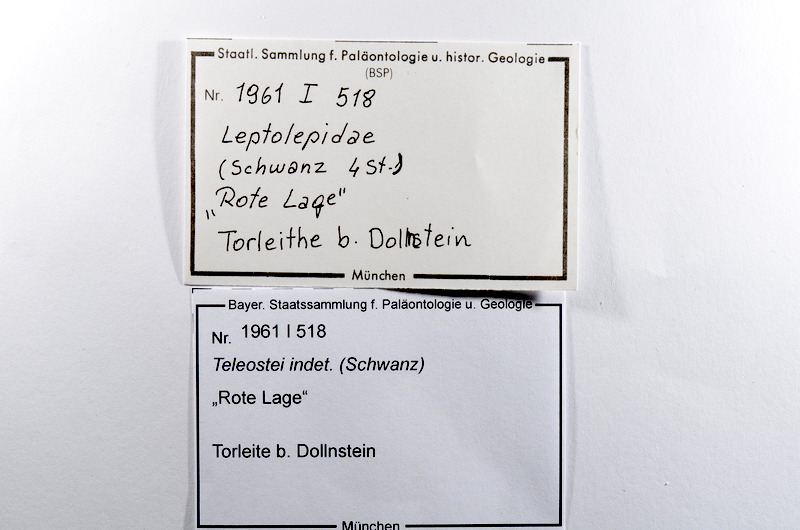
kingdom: Animalia
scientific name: Animalia
